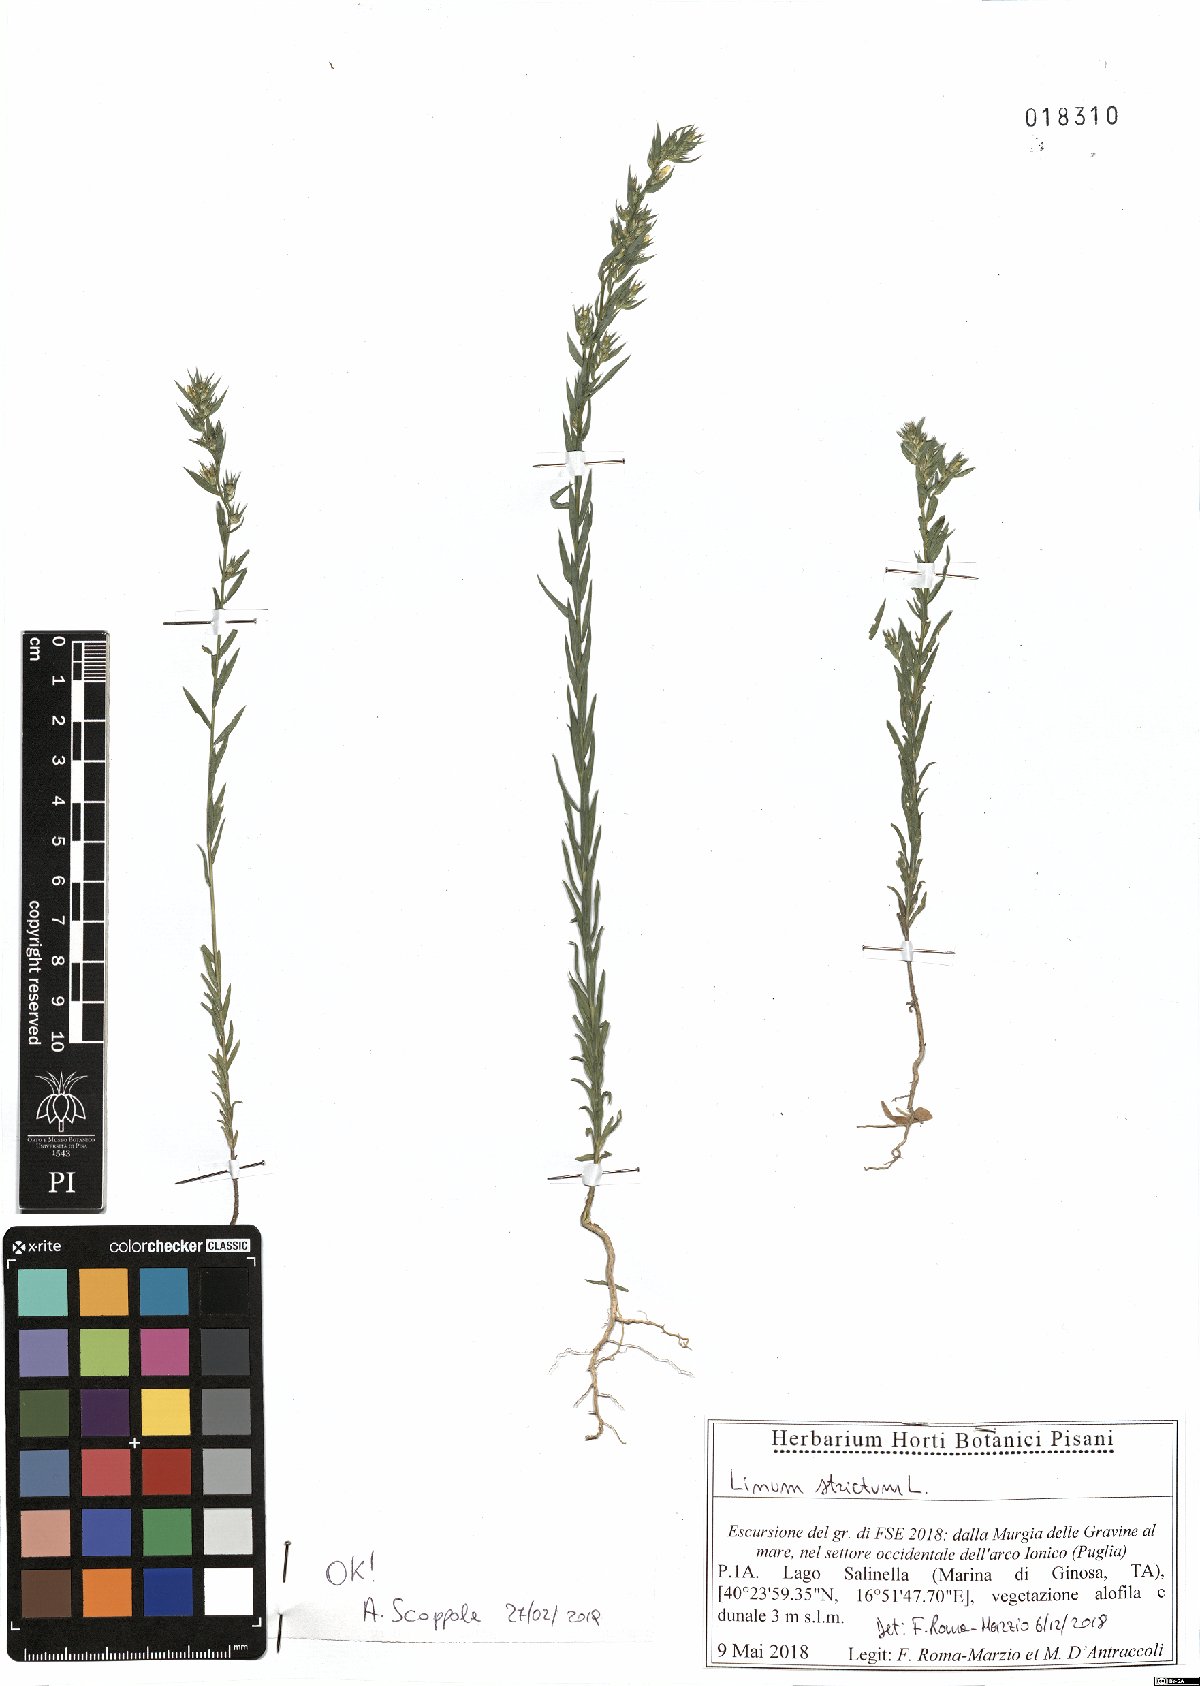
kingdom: Plantae
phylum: Tracheophyta
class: Magnoliopsida
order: Malpighiales
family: Linaceae
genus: Linum
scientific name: Linum strictum
